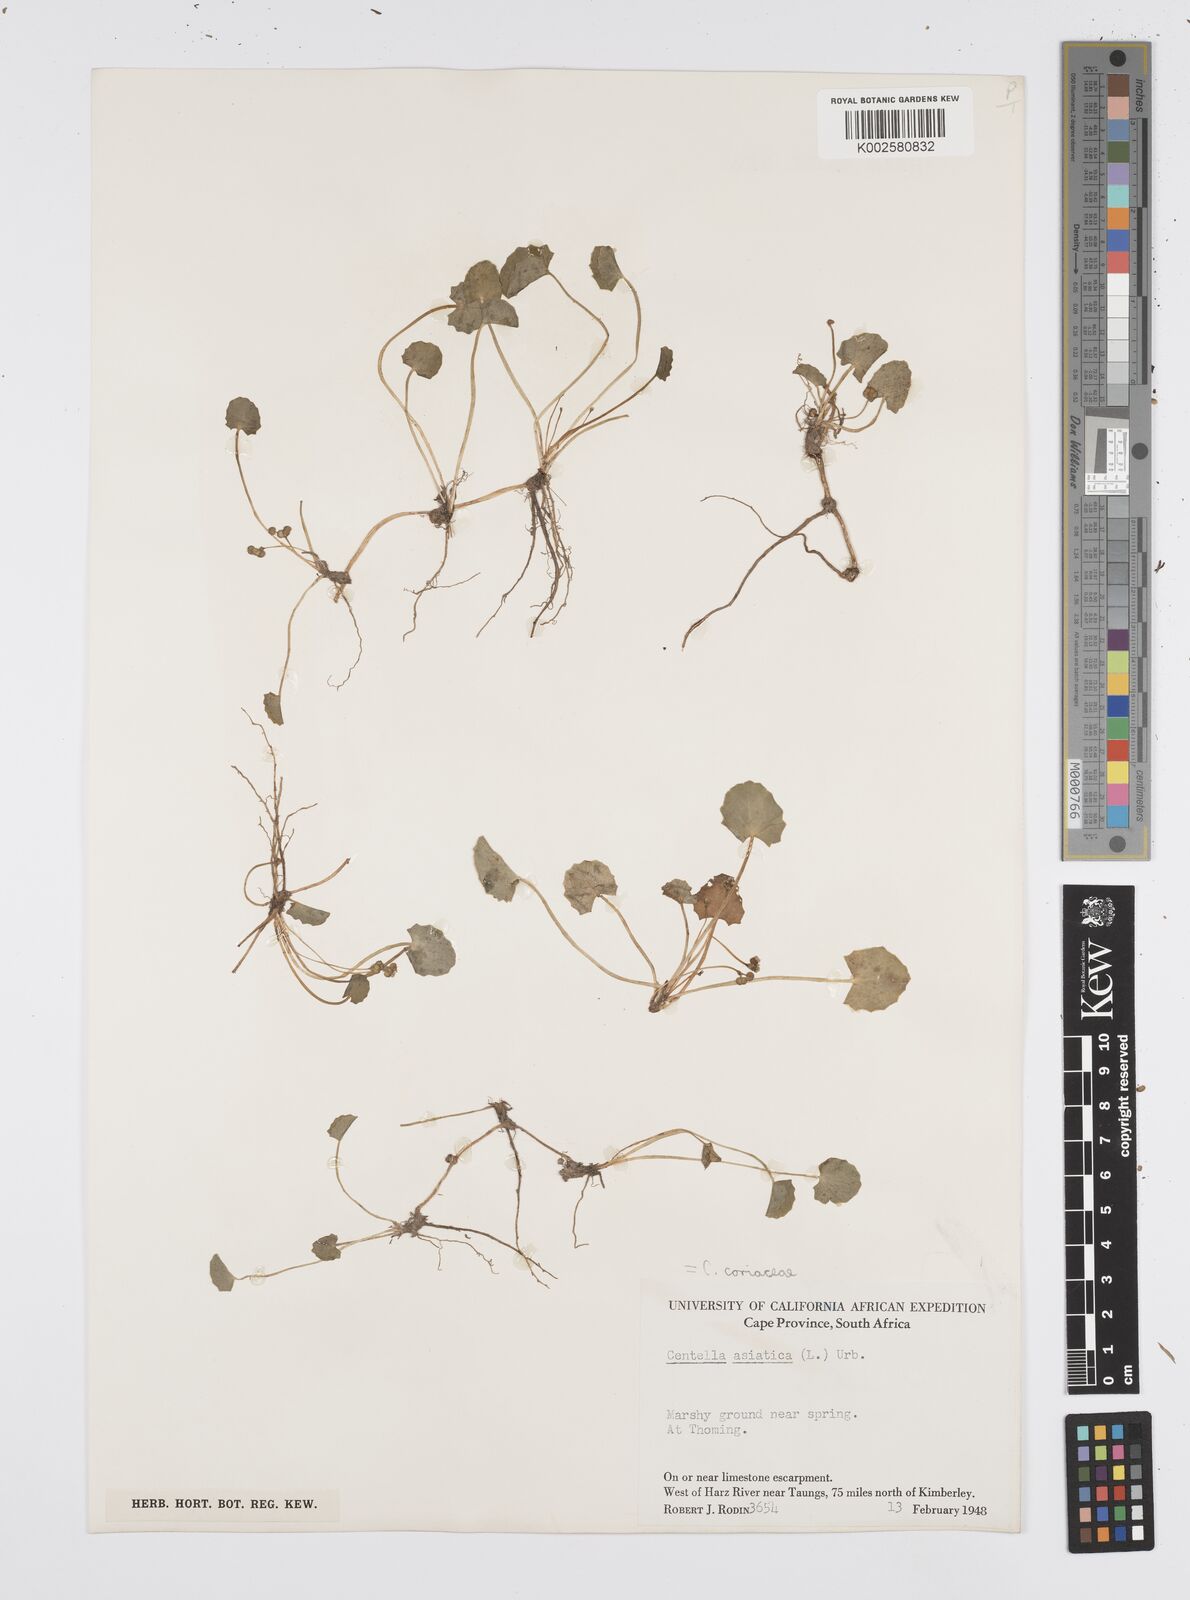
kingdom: Plantae
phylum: Tracheophyta
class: Magnoliopsida
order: Apiales
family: Apiaceae
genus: Centella
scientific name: Centella coriacea
